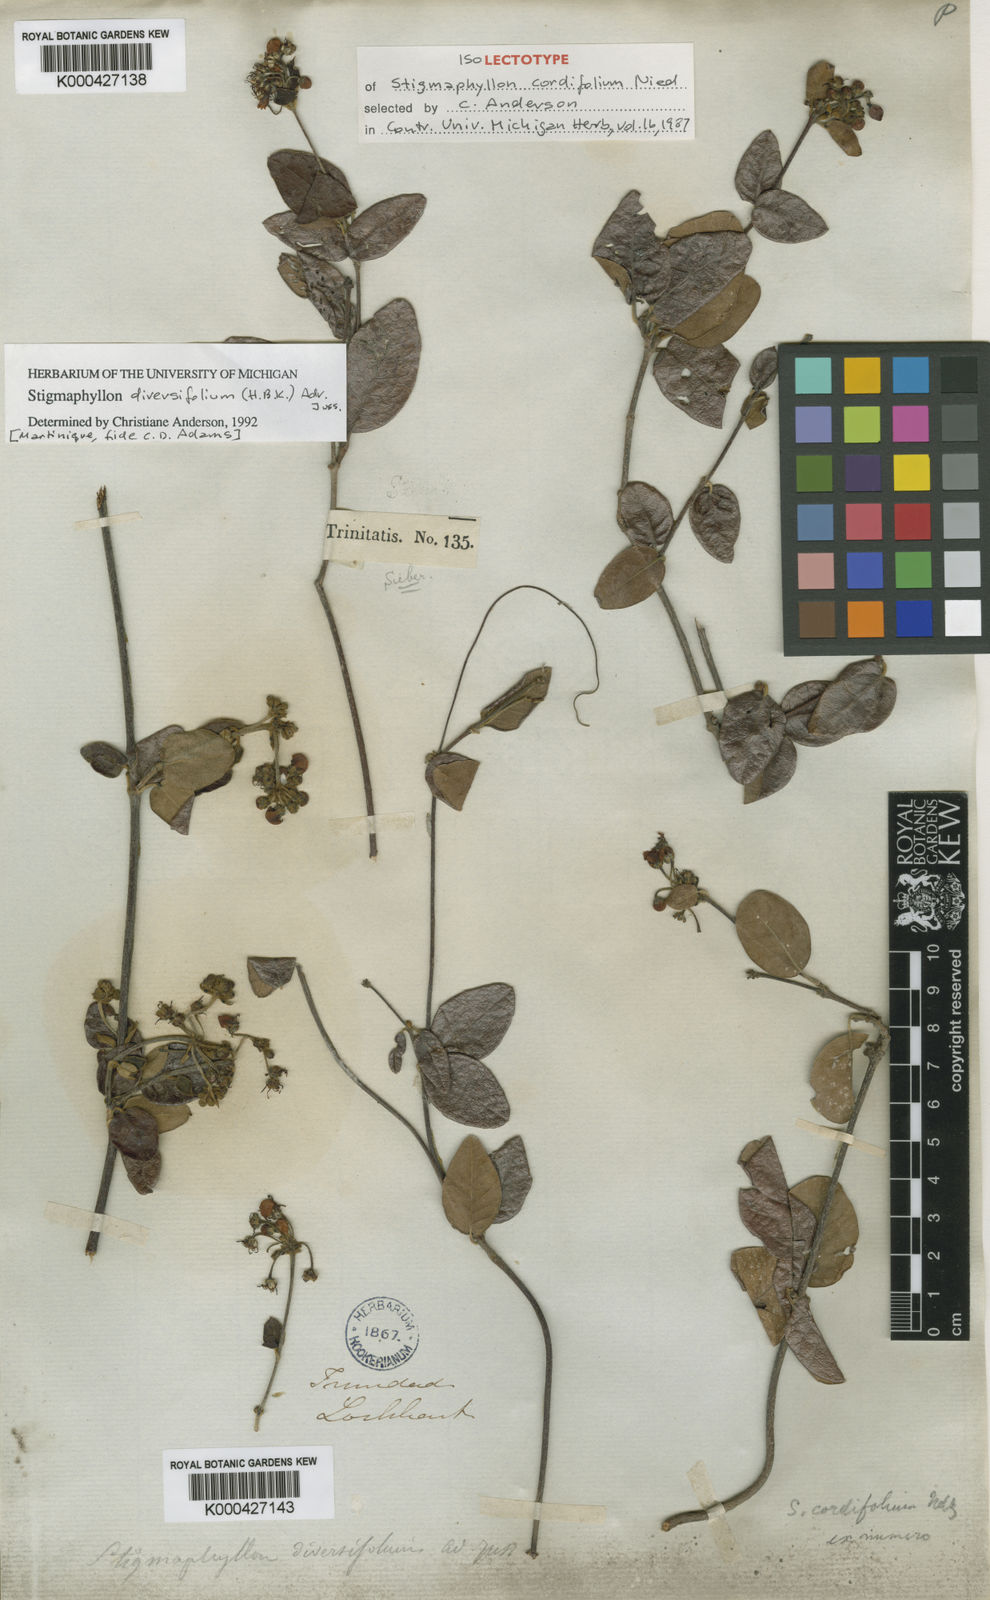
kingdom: Plantae
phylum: Tracheophyta
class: Magnoliopsida
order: Malpighiales
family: Malpighiaceae
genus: Stigmaphyllon
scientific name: Stigmaphyllon diversifolium
